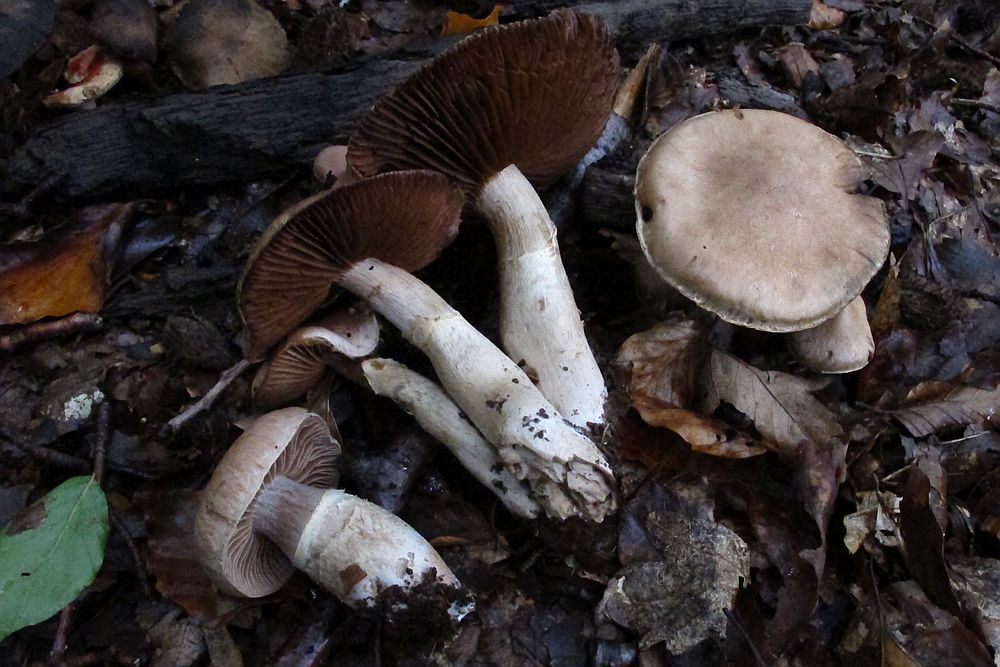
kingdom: Fungi
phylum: Basidiomycota
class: Agaricomycetes
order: Agaricales
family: Cortinariaceae
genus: Cortinarius
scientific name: Cortinarius torvus
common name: champignonagtig slørhat
